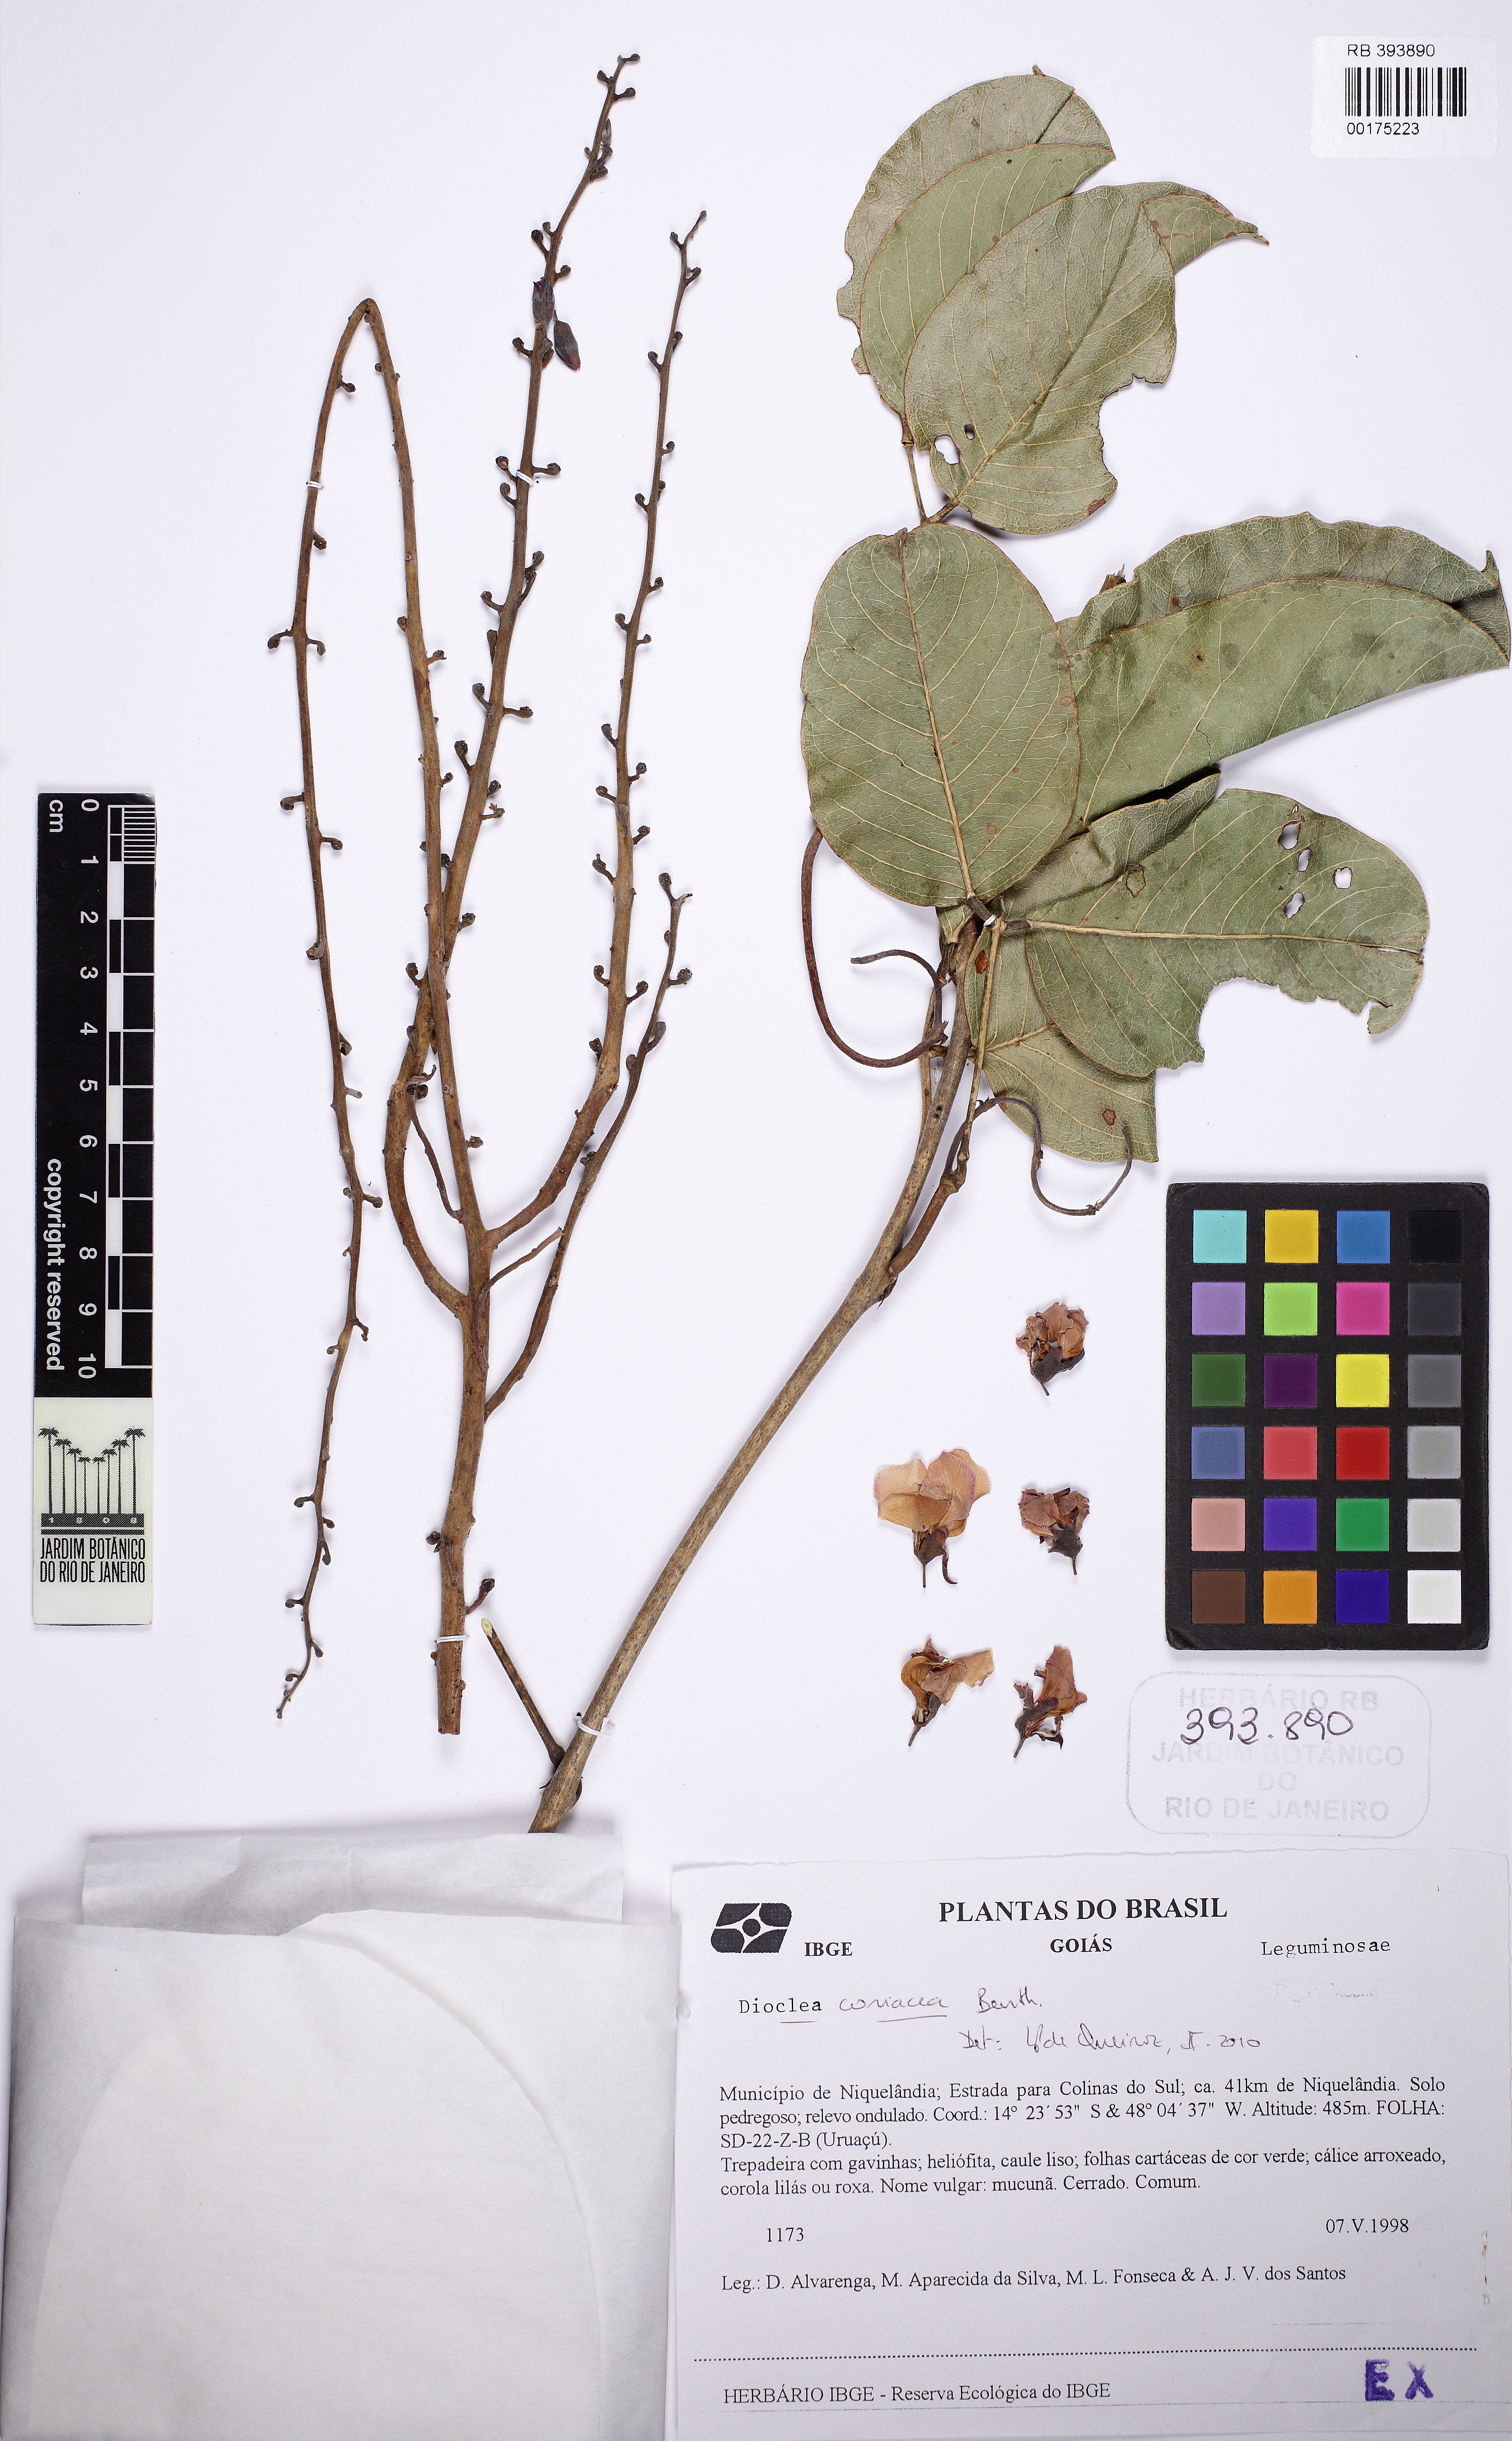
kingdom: Plantae
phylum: Tracheophyta
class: Magnoliopsida
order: Fabales
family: Fabaceae
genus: Macropsychanthus
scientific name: Macropsychanthus coriaceus
